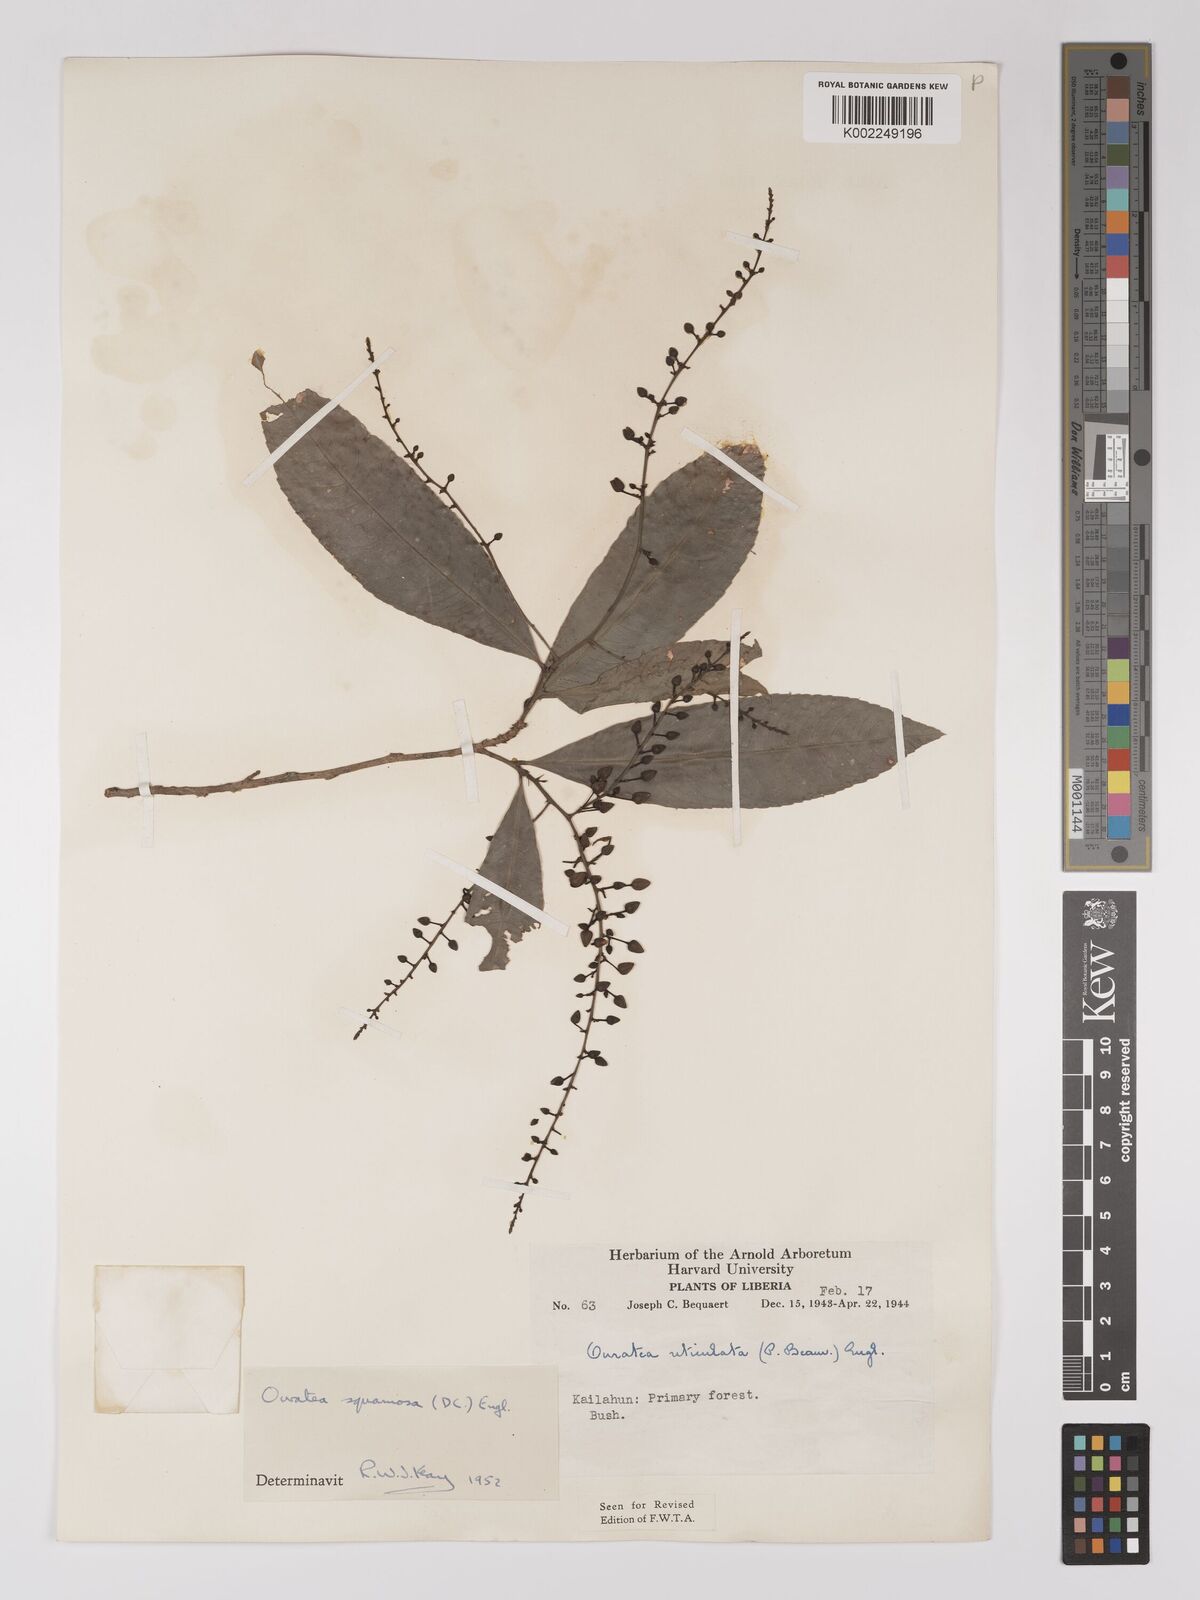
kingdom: Plantae
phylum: Tracheophyta
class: Magnoliopsida
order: Malpighiales
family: Ochnaceae
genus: Campylospermum
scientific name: Campylospermum squamosum
